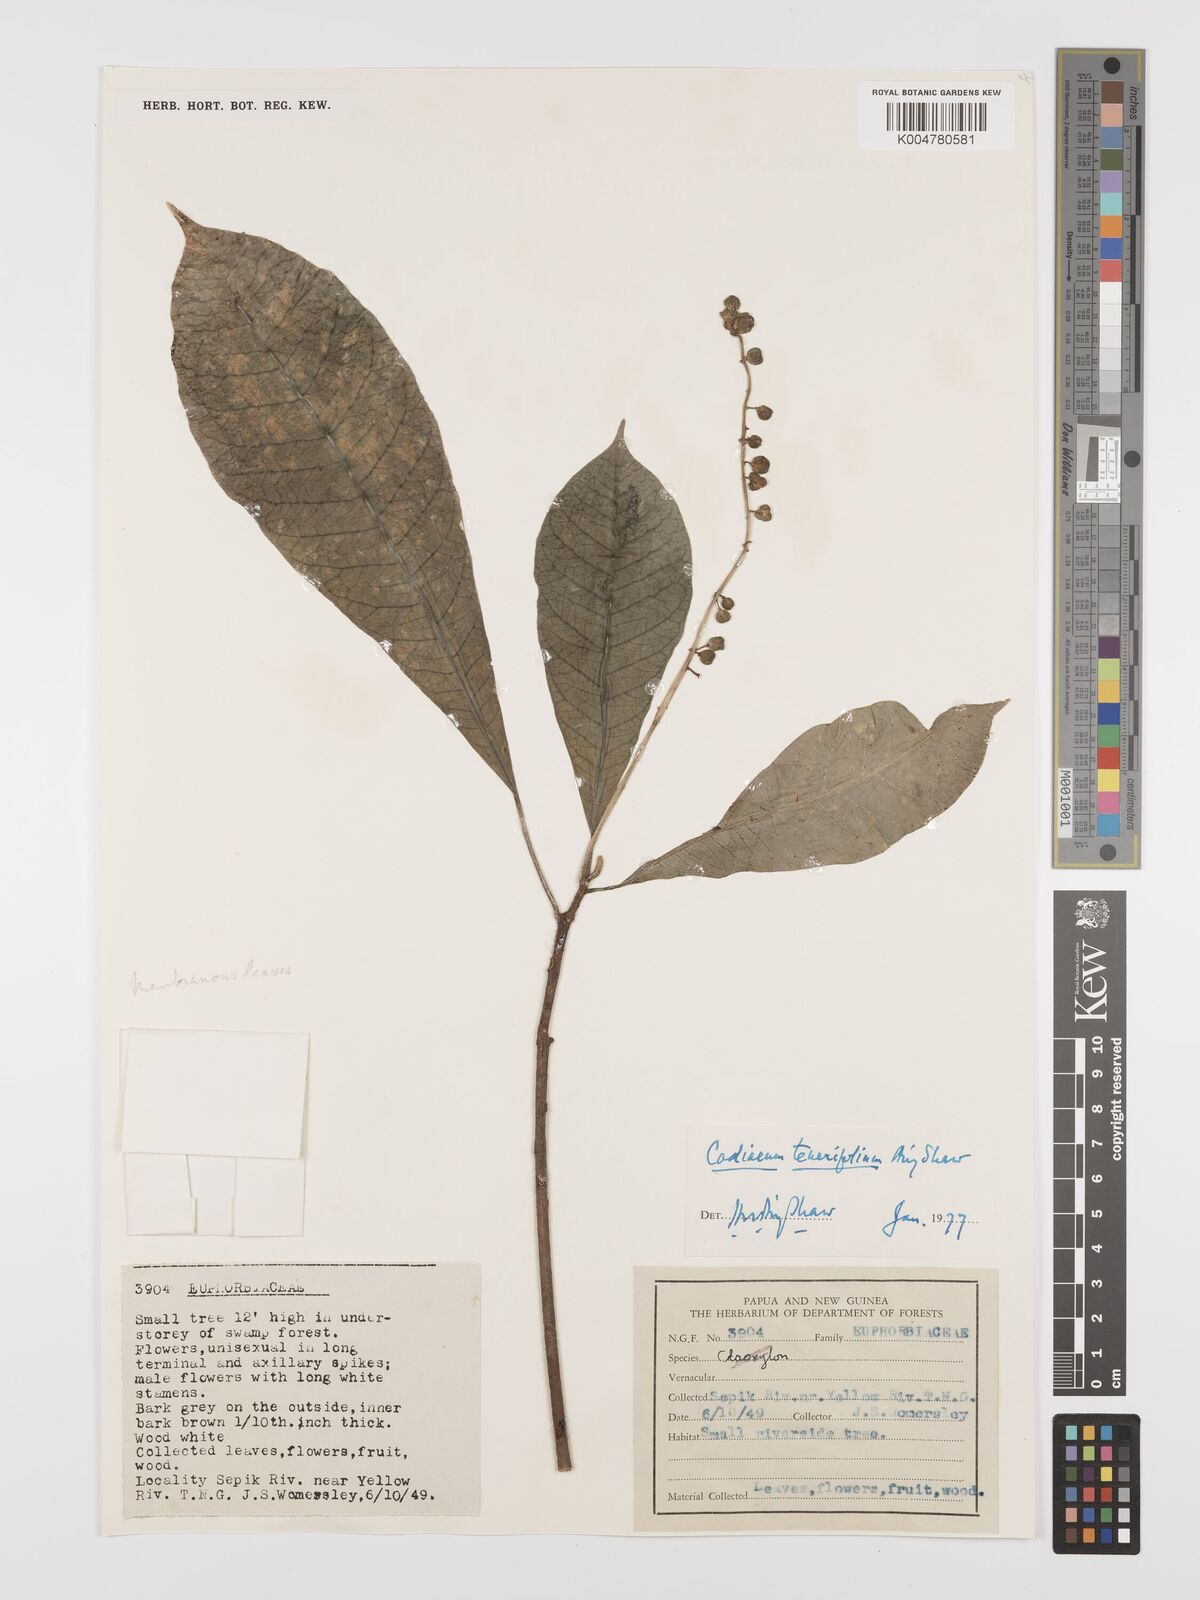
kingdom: Plantae
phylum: Tracheophyta
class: Magnoliopsida
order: Malpighiales
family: Euphorbiaceae
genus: Codiaeum
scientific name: Codiaeum tenerifolium
